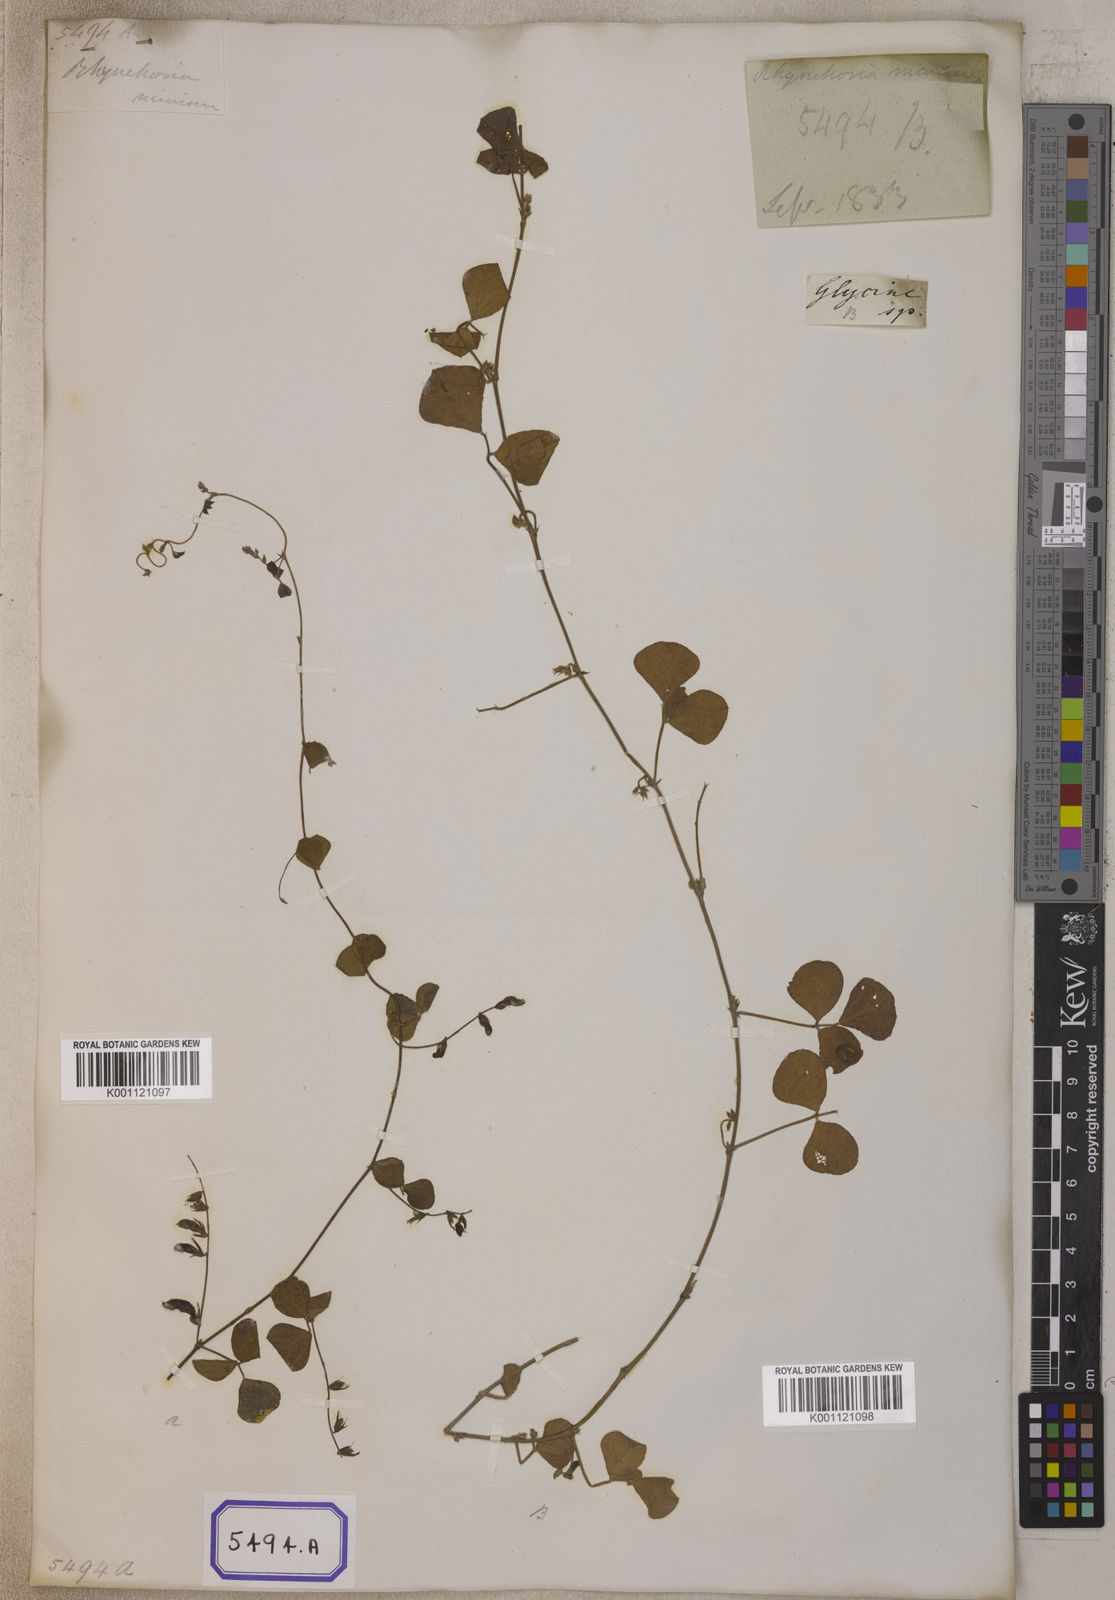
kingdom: Plantae
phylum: Tracheophyta
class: Magnoliopsida
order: Fabales
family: Fabaceae
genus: Rhynchosia
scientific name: Rhynchosia minima
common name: Least snoutbean
